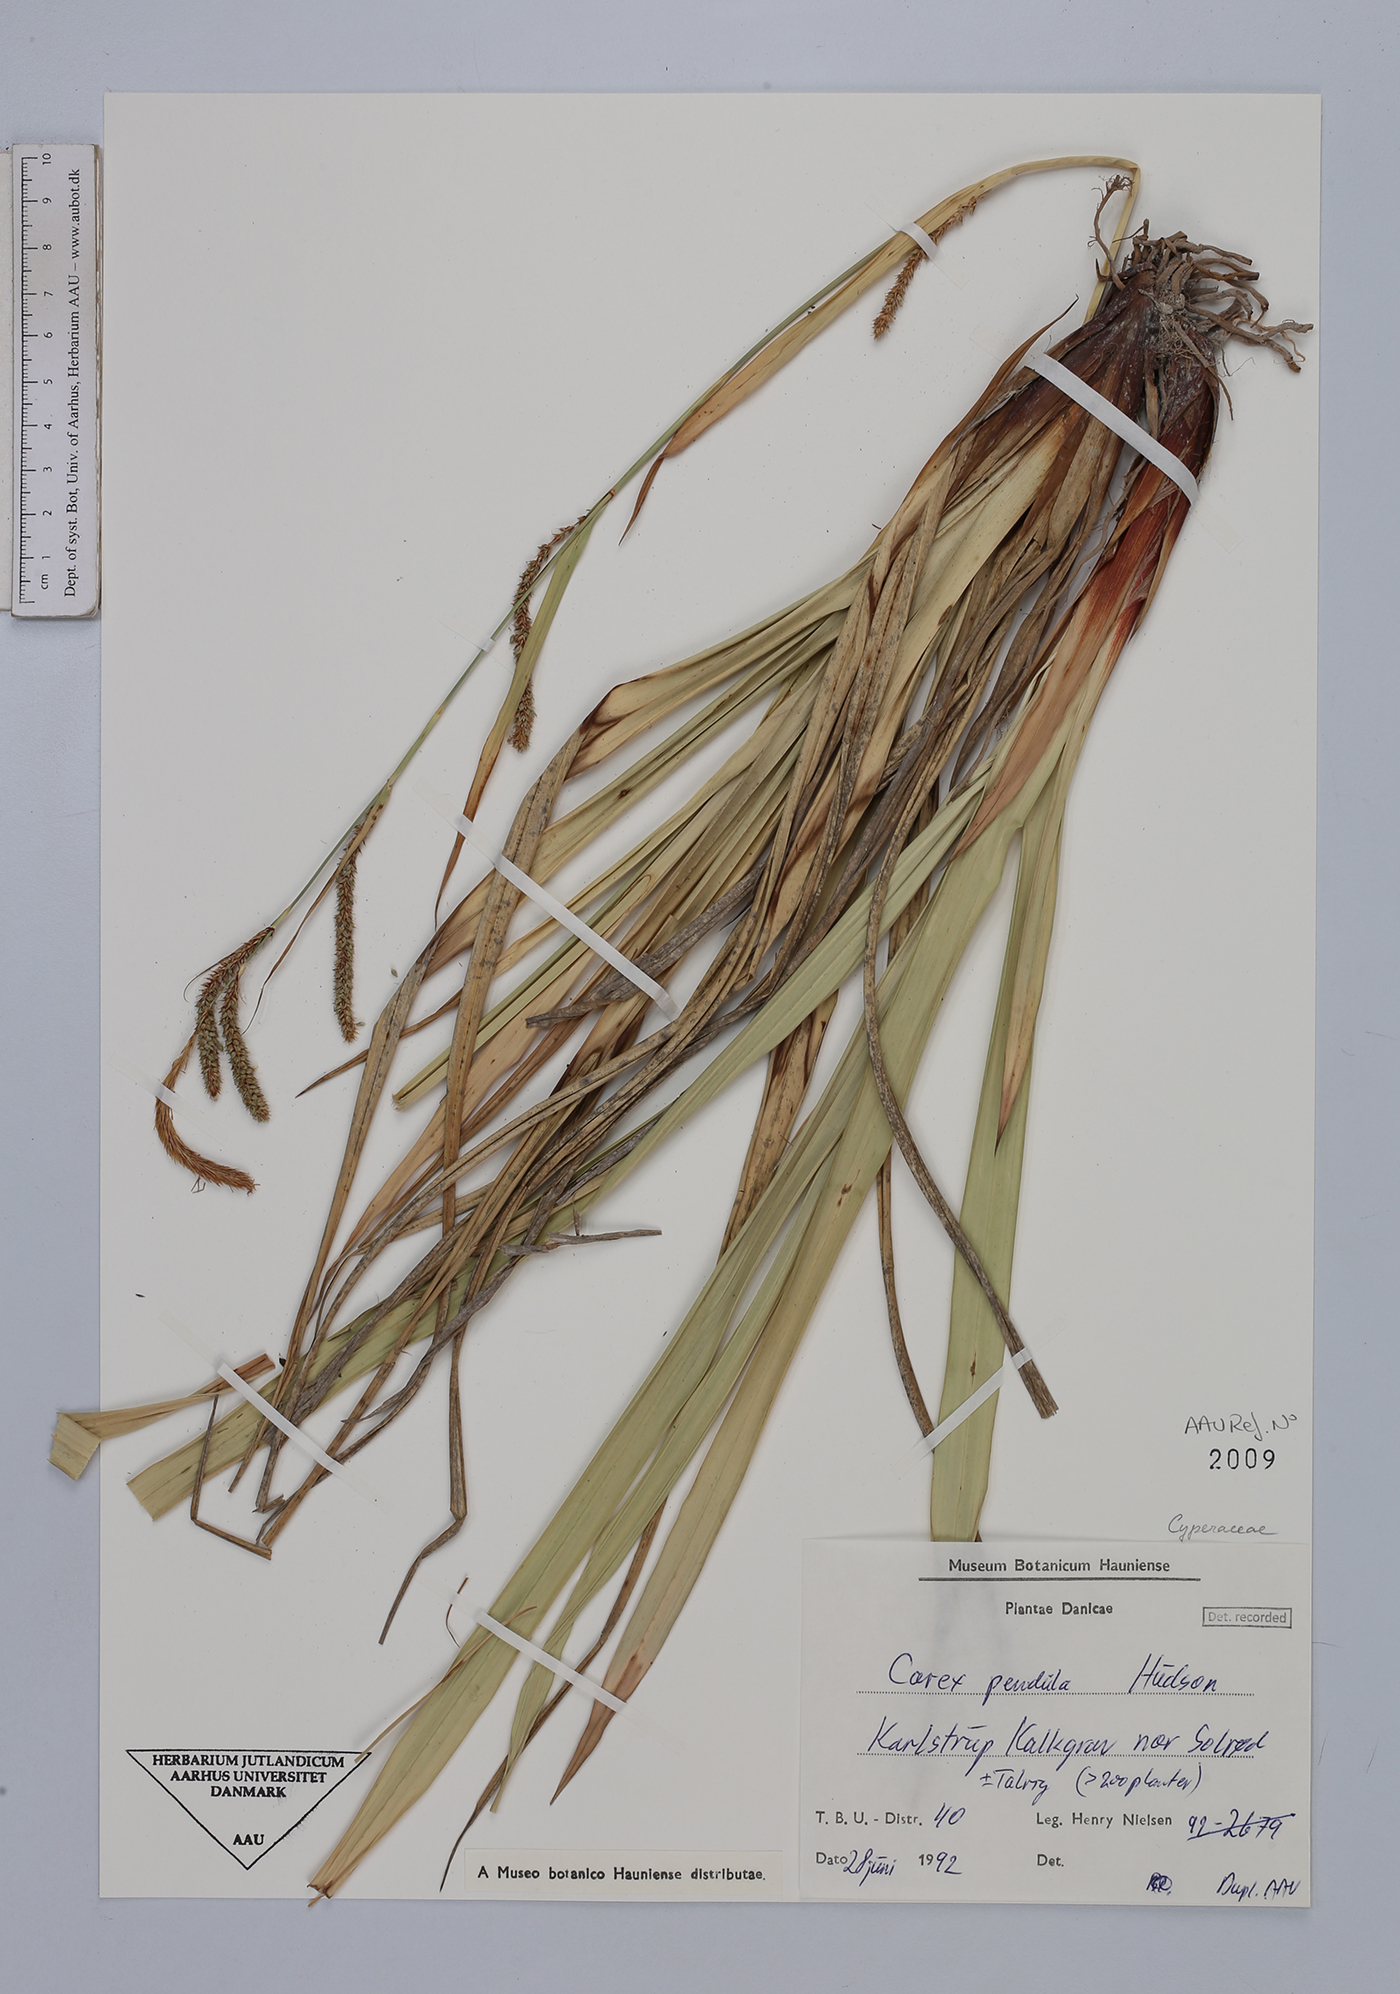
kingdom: Plantae
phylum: Tracheophyta
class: Liliopsida
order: Poales
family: Cyperaceae
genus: Carex
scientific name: Carex pendula
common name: Pendulous sedge
